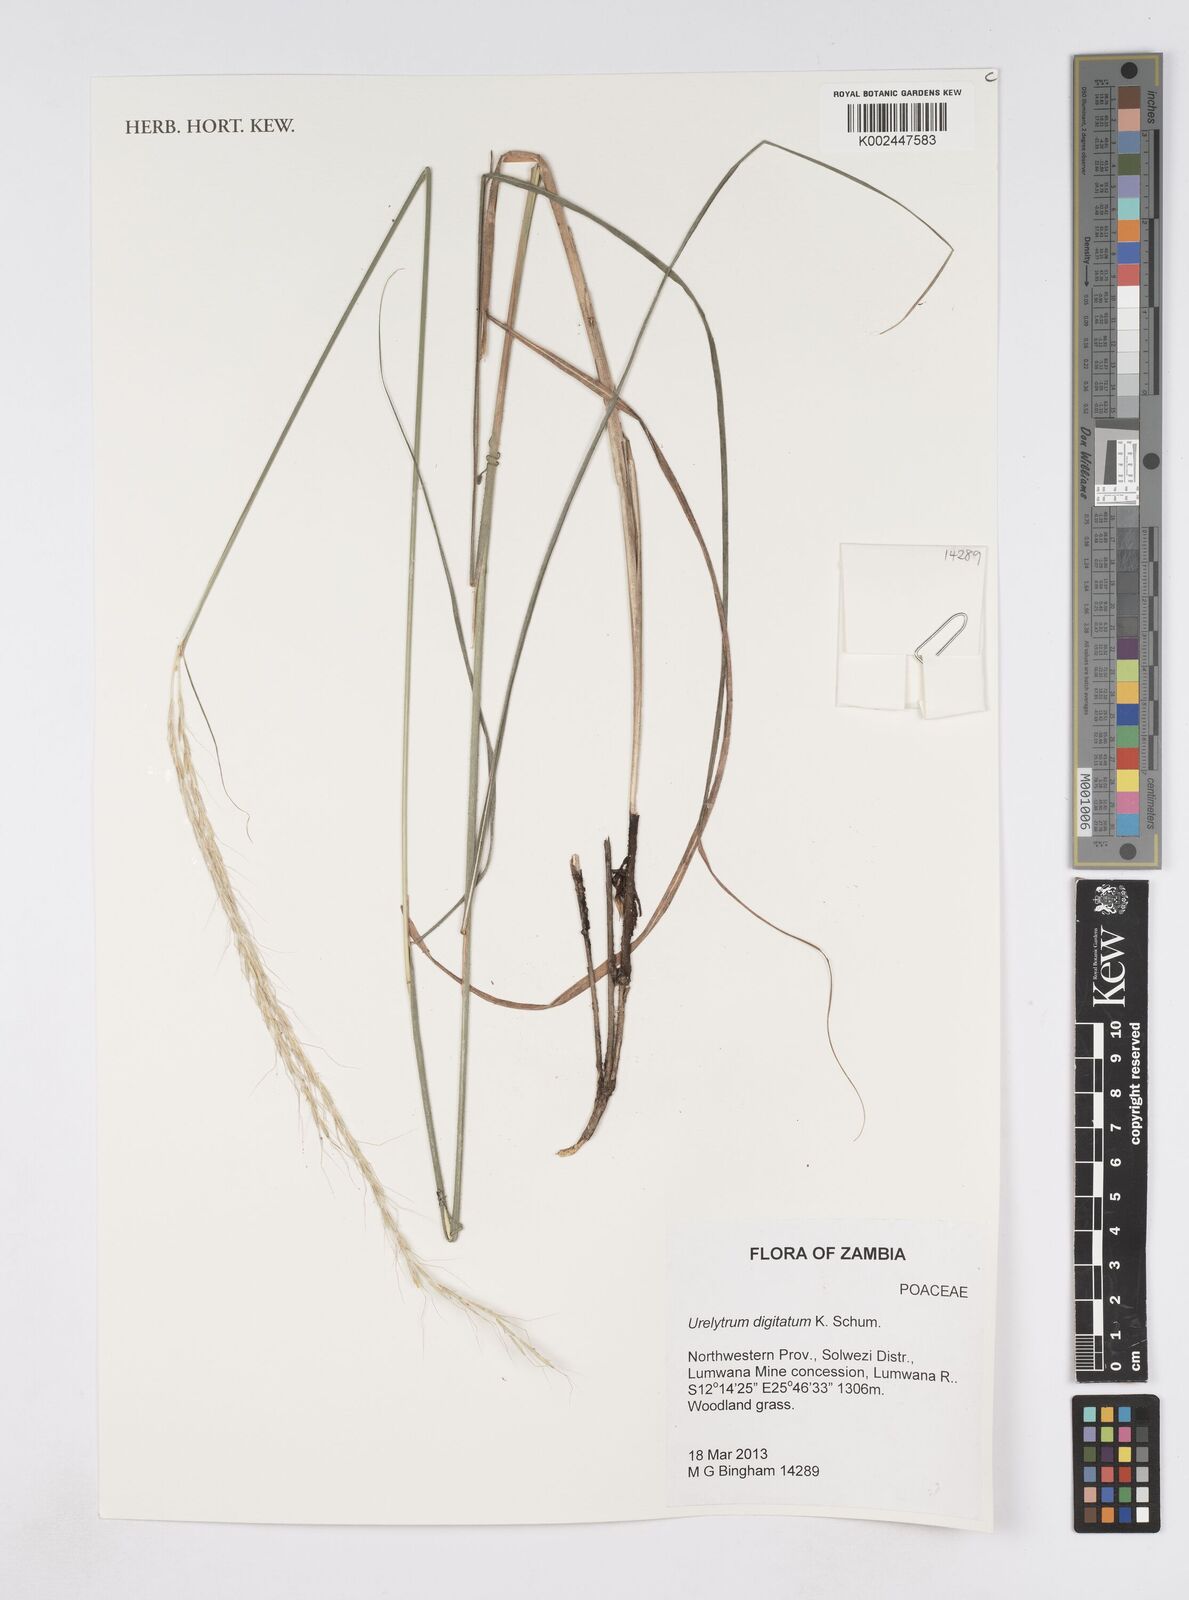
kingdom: Plantae
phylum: Tracheophyta
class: Liliopsida
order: Poales
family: Poaceae
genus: Urelytrum
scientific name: Urelytrum digitatum
